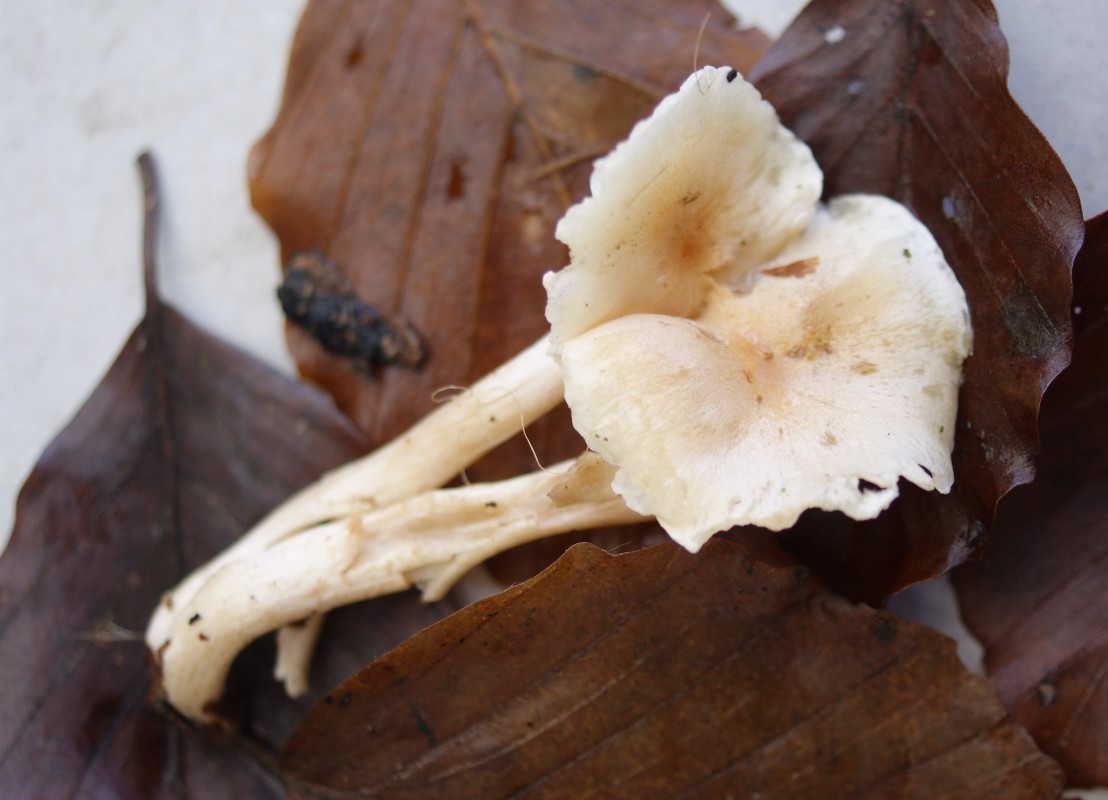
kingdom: Fungi
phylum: Basidiomycota
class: Agaricomycetes
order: Agaricales
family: Hygrophoraceae
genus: Hygrophorus
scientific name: Hygrophorus unicolor
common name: orangeøjet sneglehat
